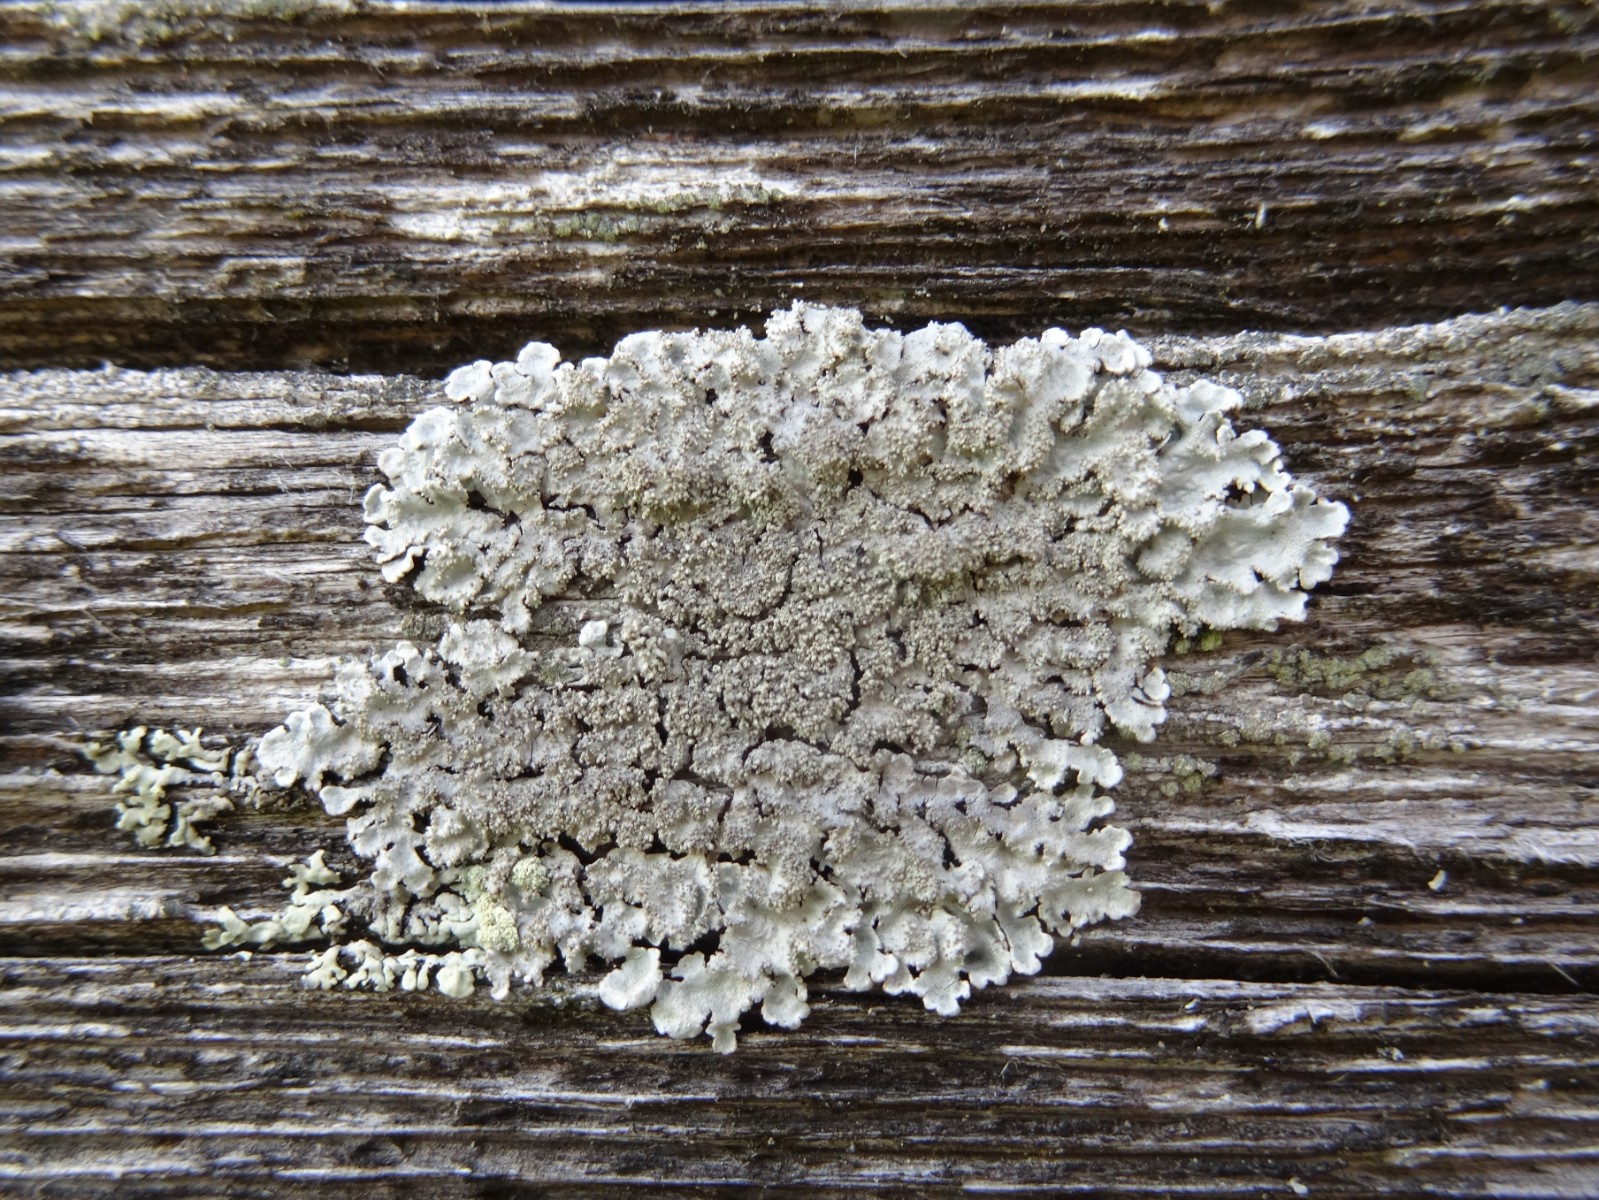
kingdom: Fungi
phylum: Ascomycota
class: Lecanoromycetes
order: Lecanorales
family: Parmeliaceae
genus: Imshaugia
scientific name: Imshaugia aleurites
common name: kliddet stolpelav
